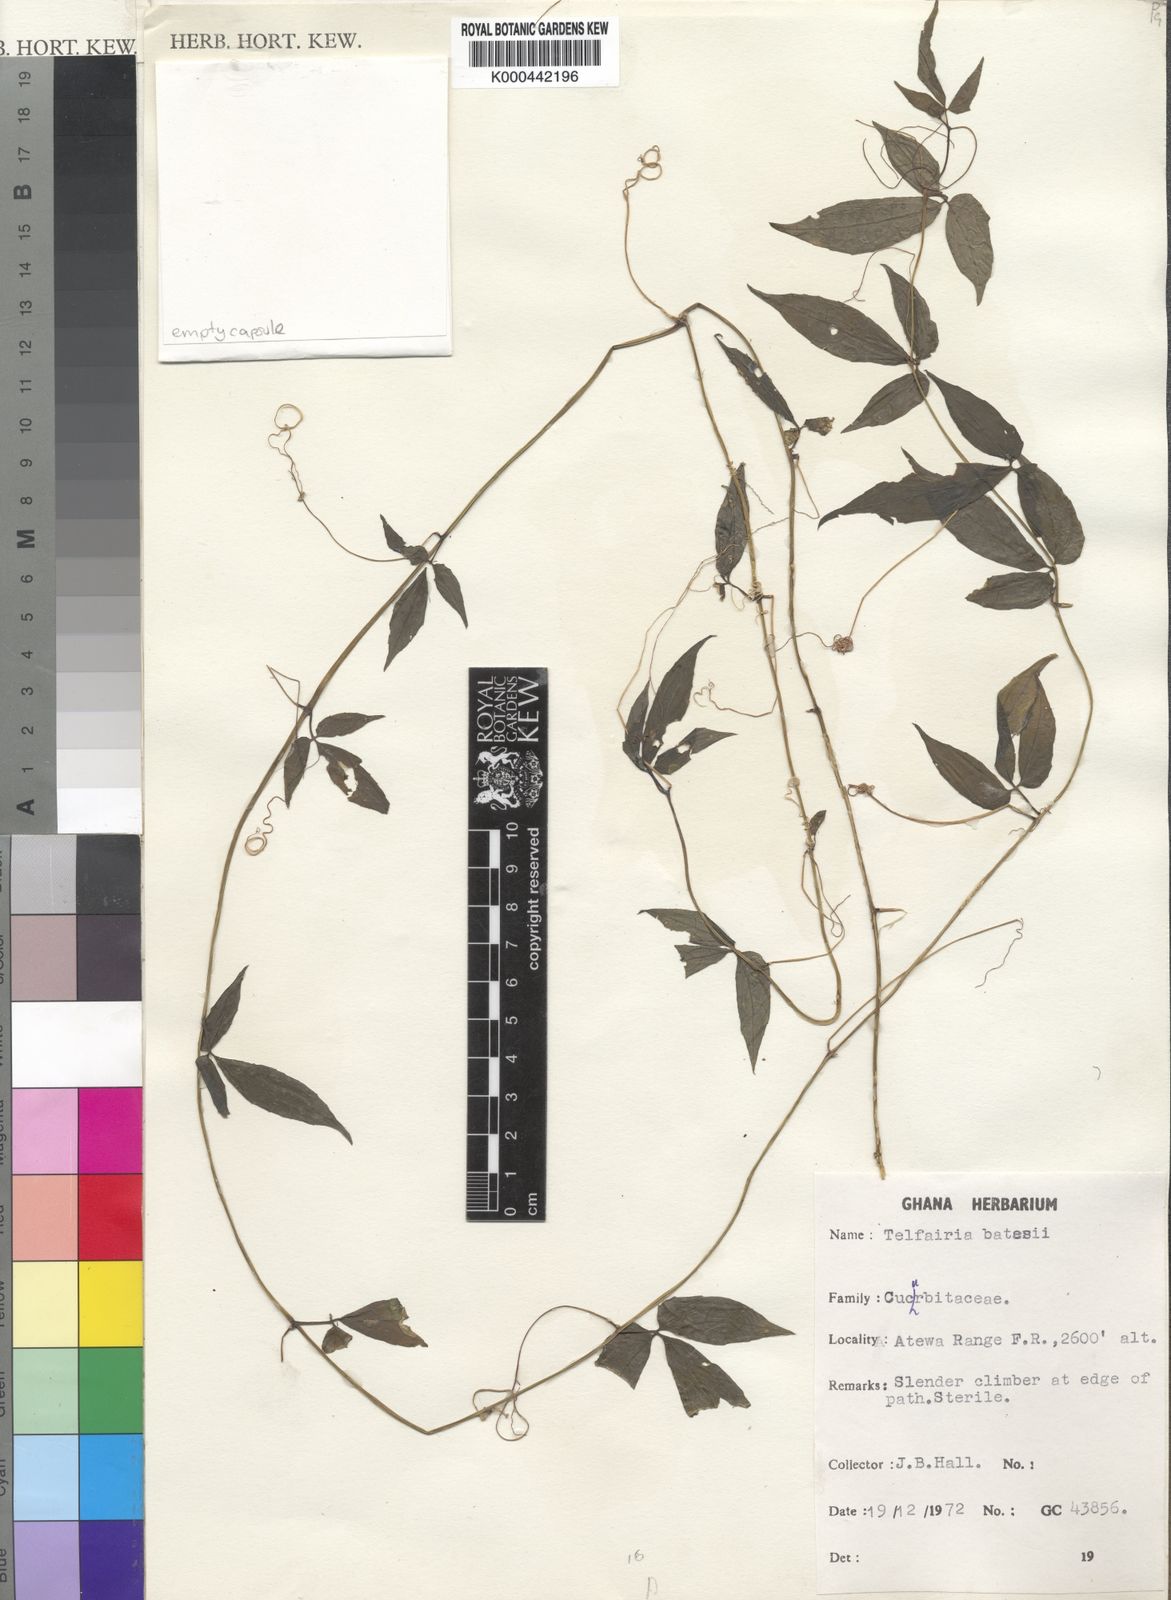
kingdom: Plantae
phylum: Tracheophyta
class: Magnoliopsida
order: Cucurbitales
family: Cucurbitaceae
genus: Telfairia
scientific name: Telfairia batesii
